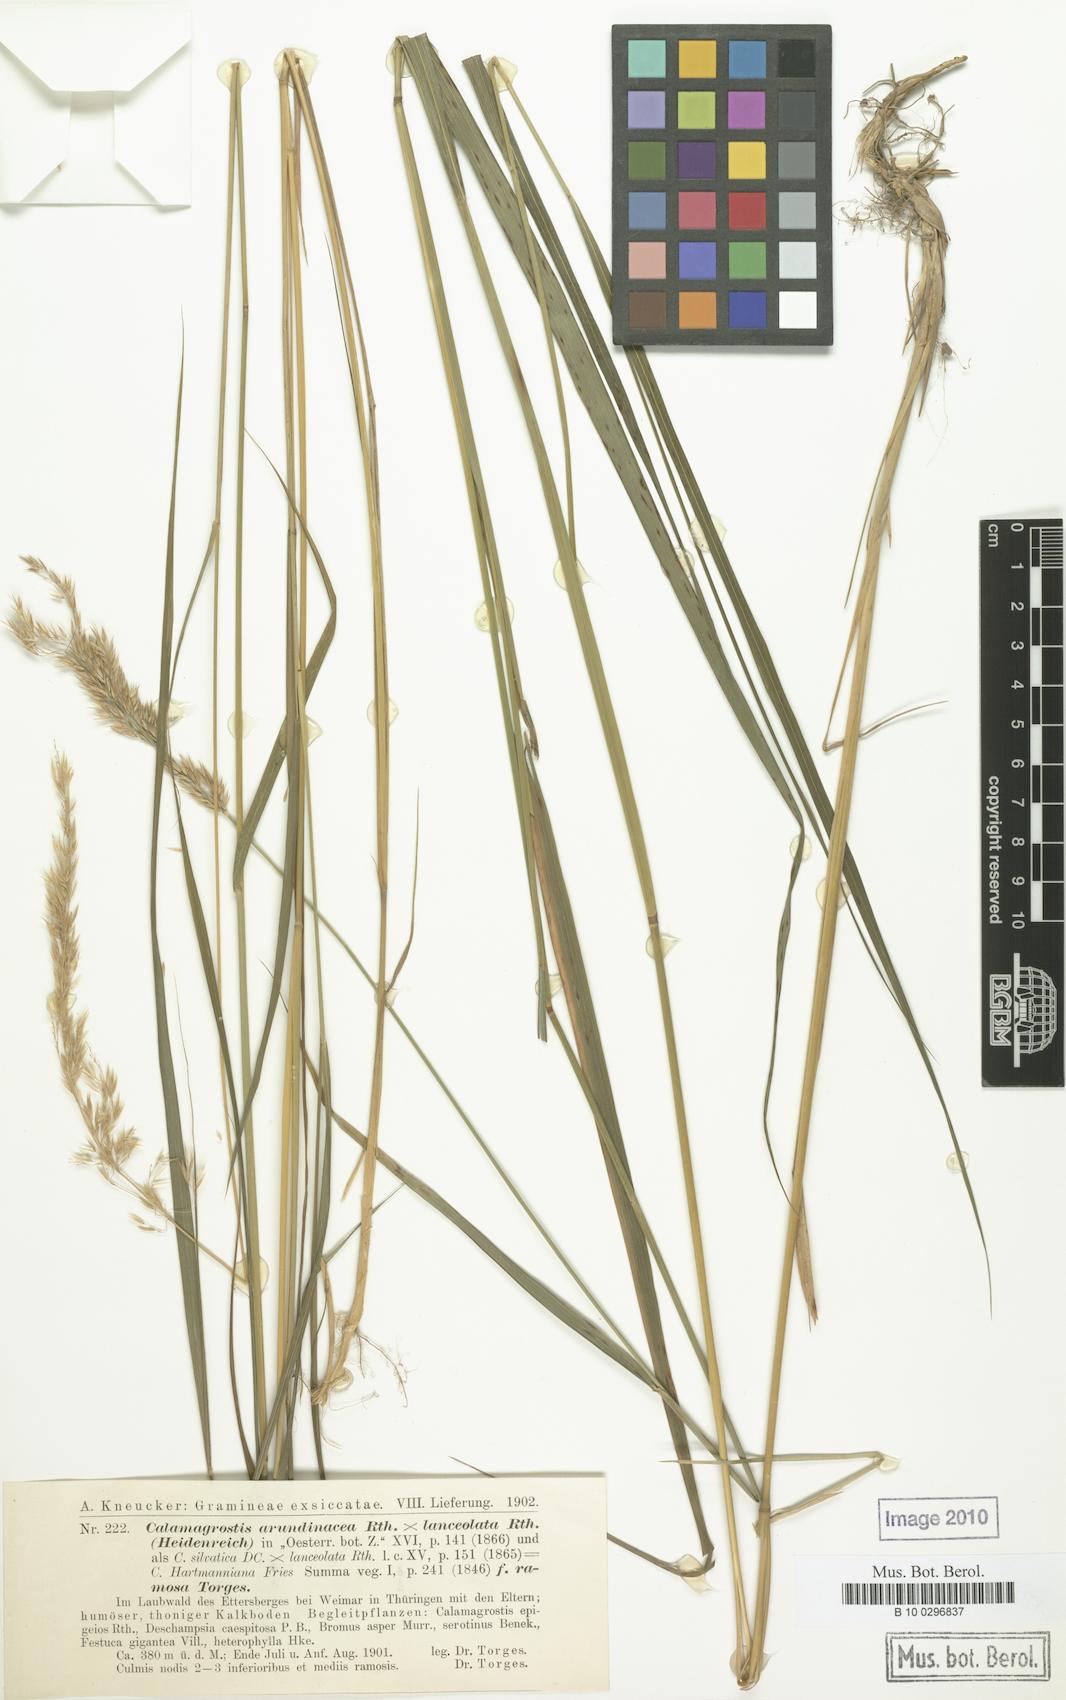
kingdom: Plantae
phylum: Tracheophyta
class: Liliopsida
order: Poales
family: Poaceae
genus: Calamagrostis
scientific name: Calamagrostis hartmaniana
